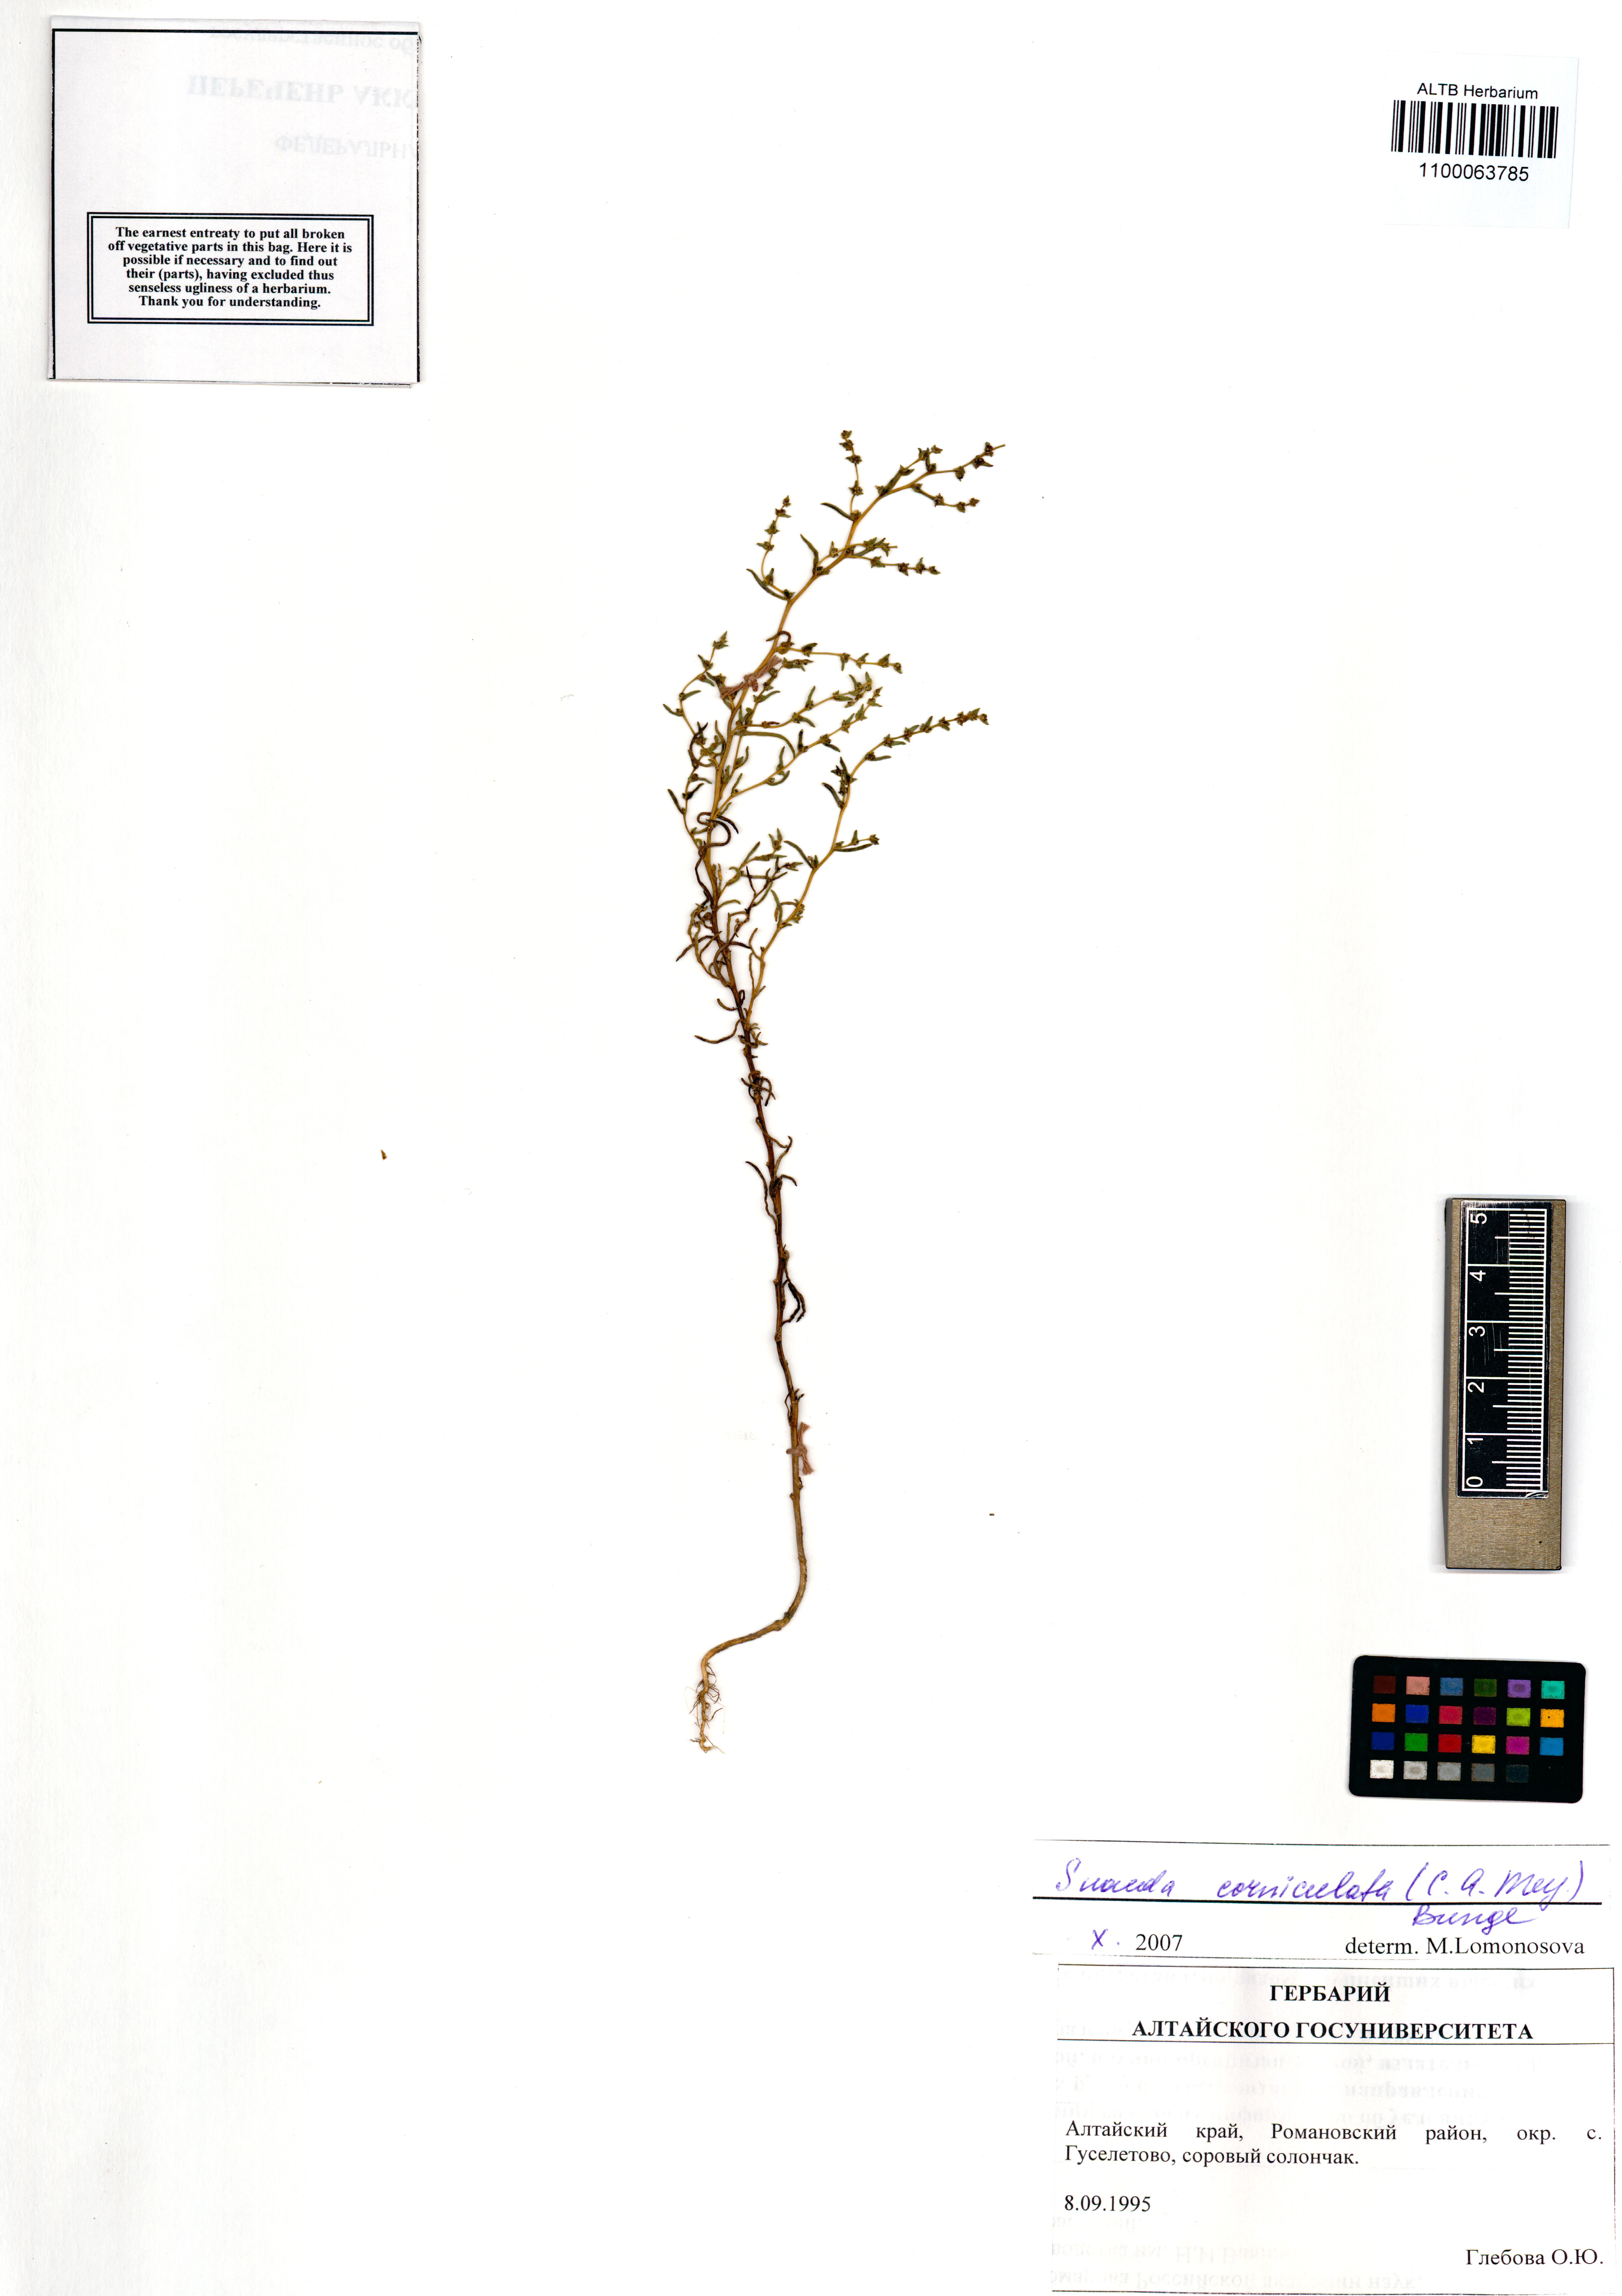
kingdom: Plantae
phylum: Tracheophyta
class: Magnoliopsida
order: Caryophyllales
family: Amaranthaceae
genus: Suaeda
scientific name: Suaeda corniculata
